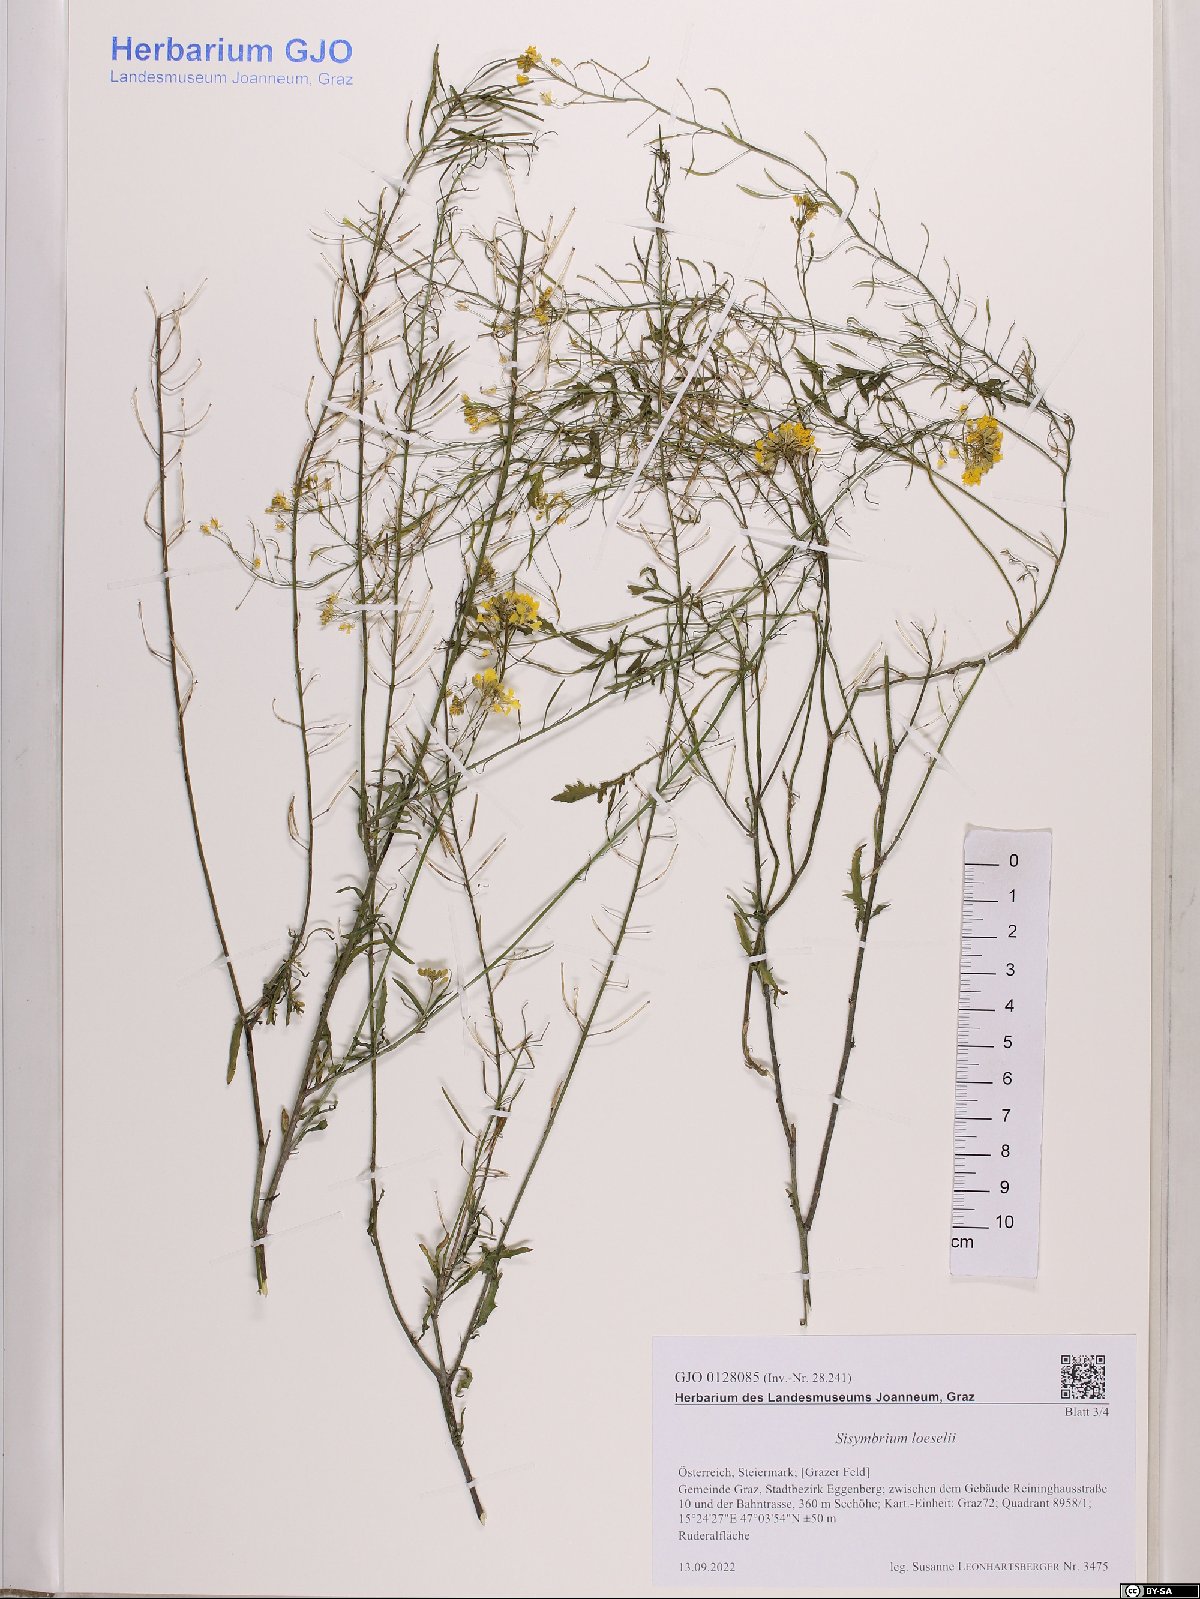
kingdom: Plantae
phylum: Tracheophyta
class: Magnoliopsida
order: Brassicales
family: Brassicaceae
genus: Sisymbrium
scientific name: Sisymbrium loeselii
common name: False london-rocket
